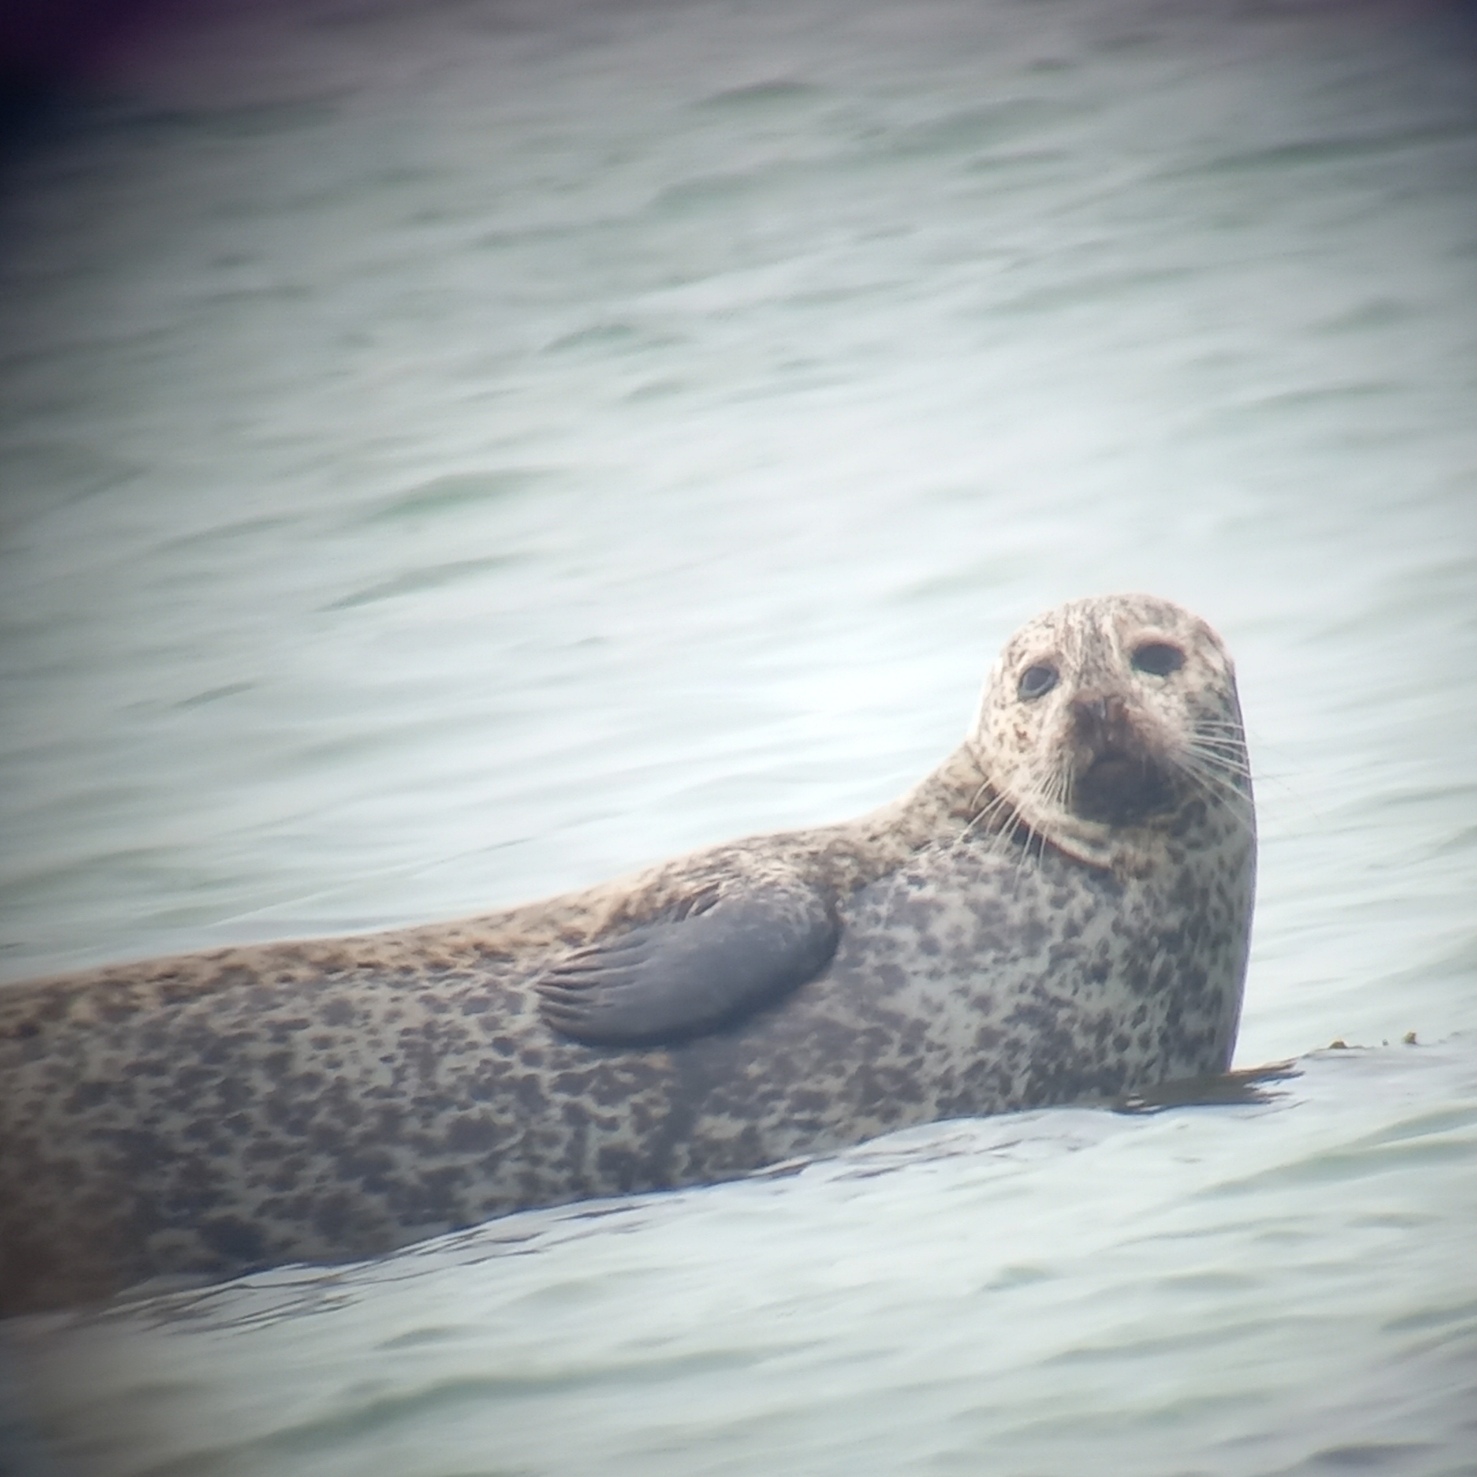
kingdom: Animalia
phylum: Chordata
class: Mammalia
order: Carnivora
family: Phocidae
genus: Phoca
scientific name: Phoca vitulina
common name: Spættet sæl
